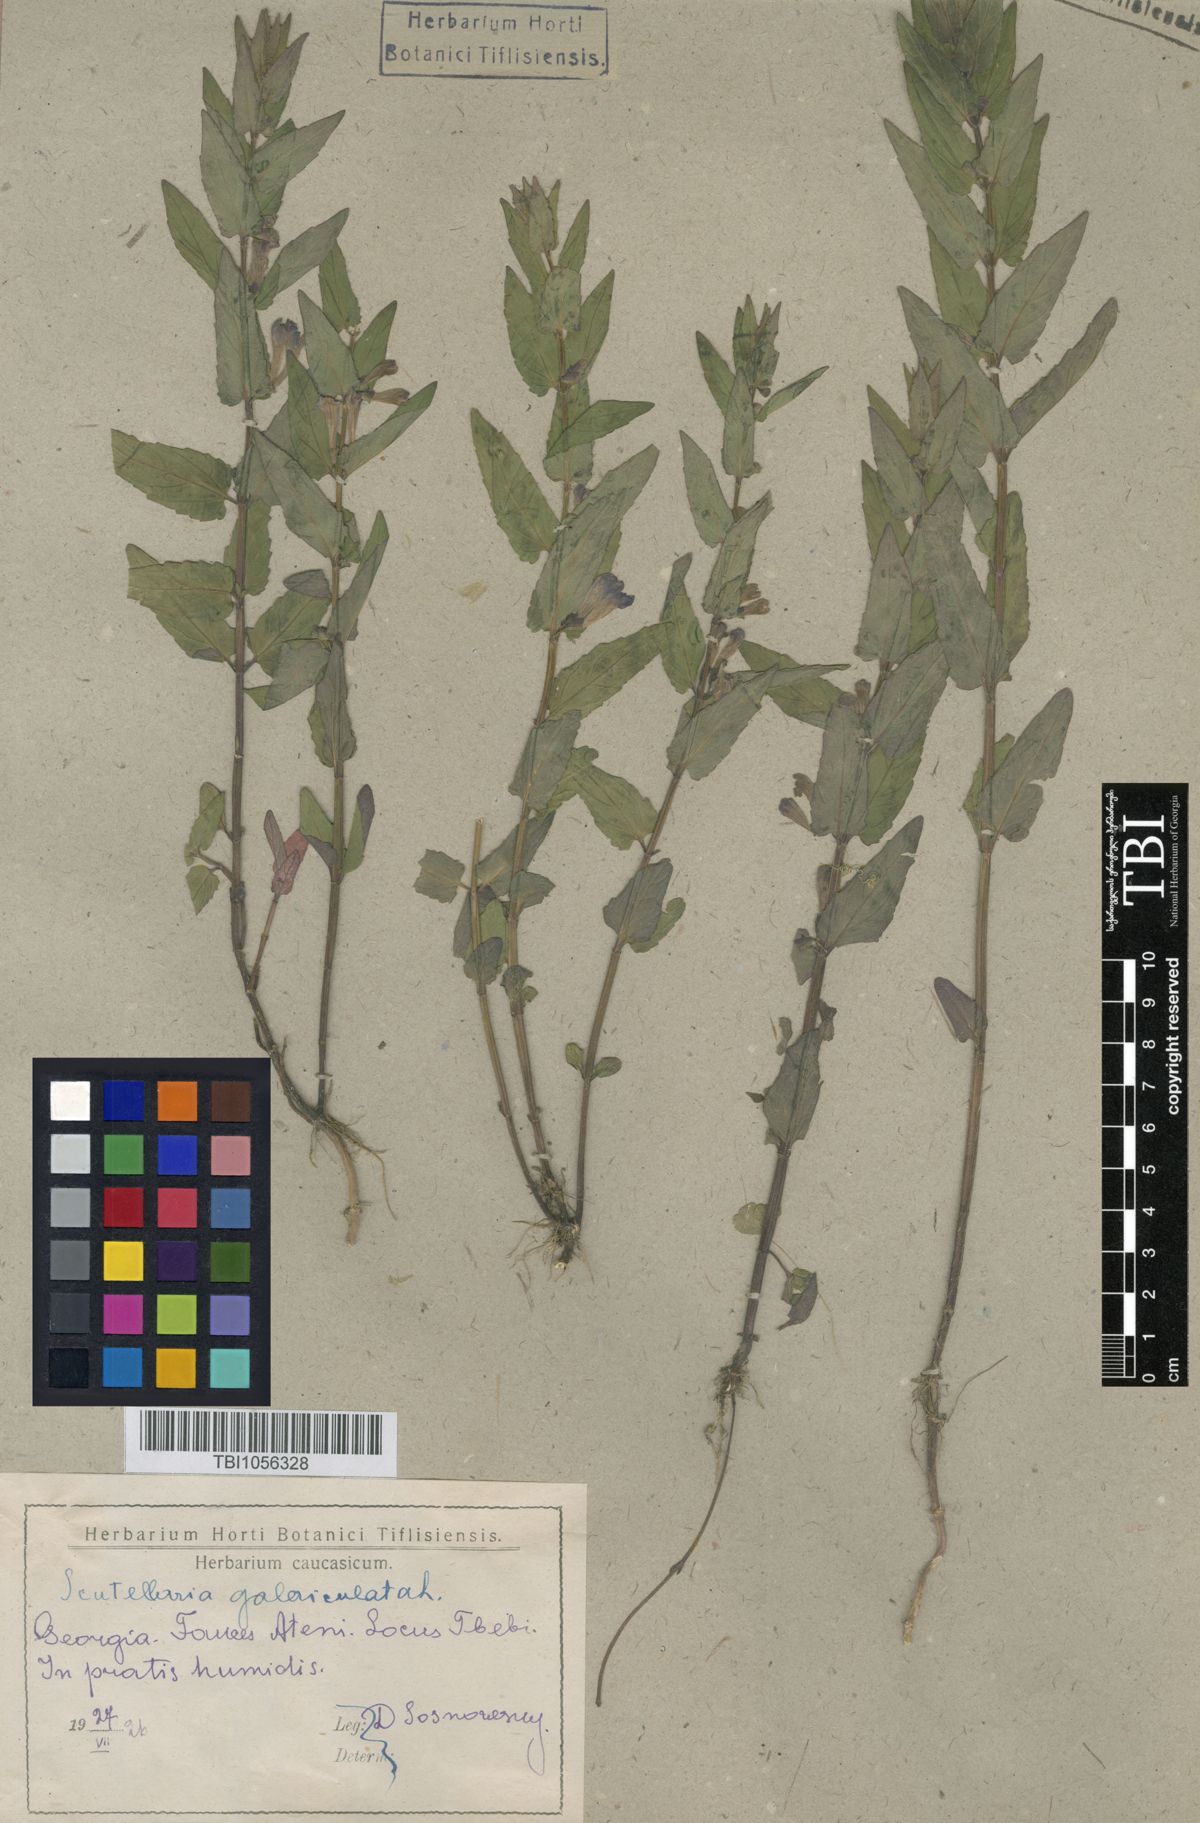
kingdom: Plantae
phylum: Tracheophyta
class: Magnoliopsida
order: Lamiales
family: Lamiaceae
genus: Scutellaria
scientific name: Scutellaria galericulata
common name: Skullcap
